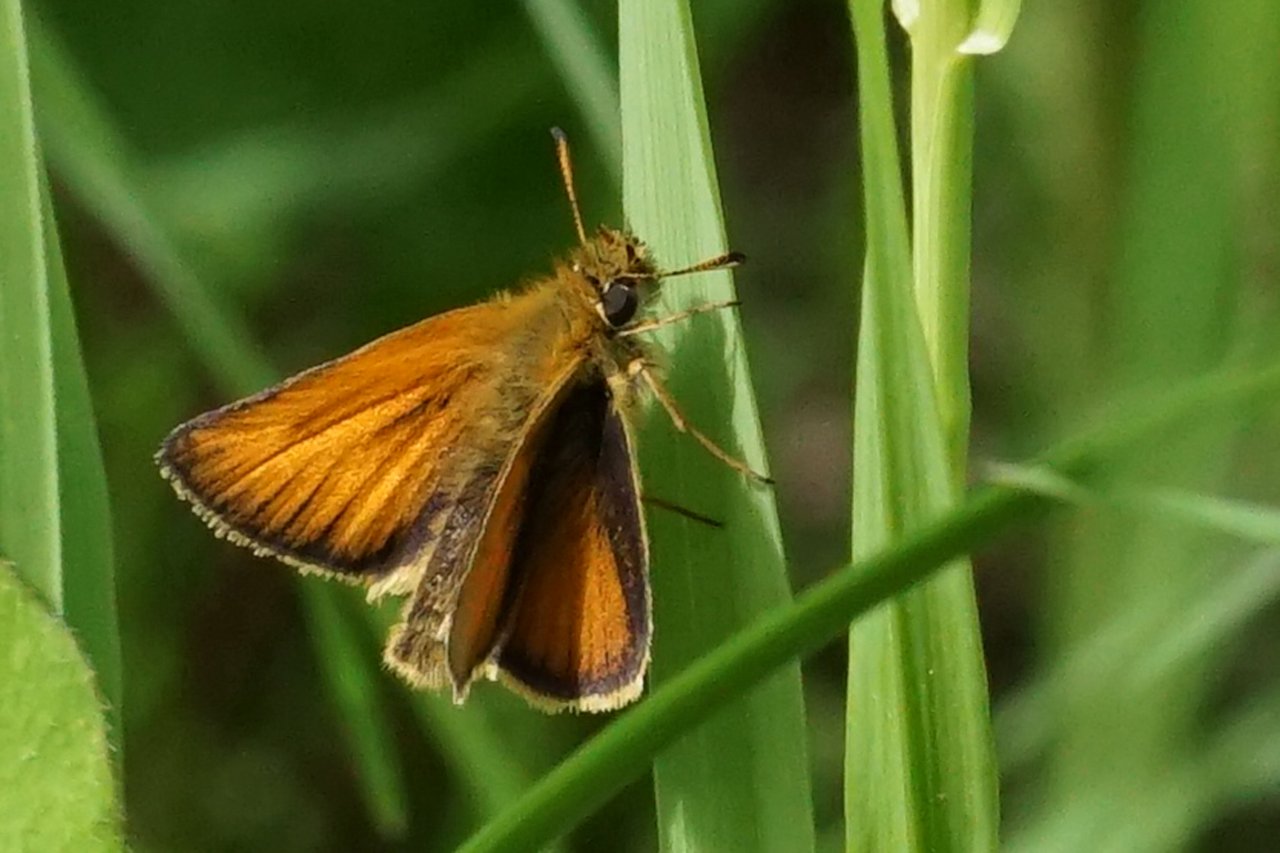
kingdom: Animalia
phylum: Arthropoda
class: Insecta
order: Lepidoptera
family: Hesperiidae
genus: Thymelicus
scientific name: Thymelicus lineola
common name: European Skipper
